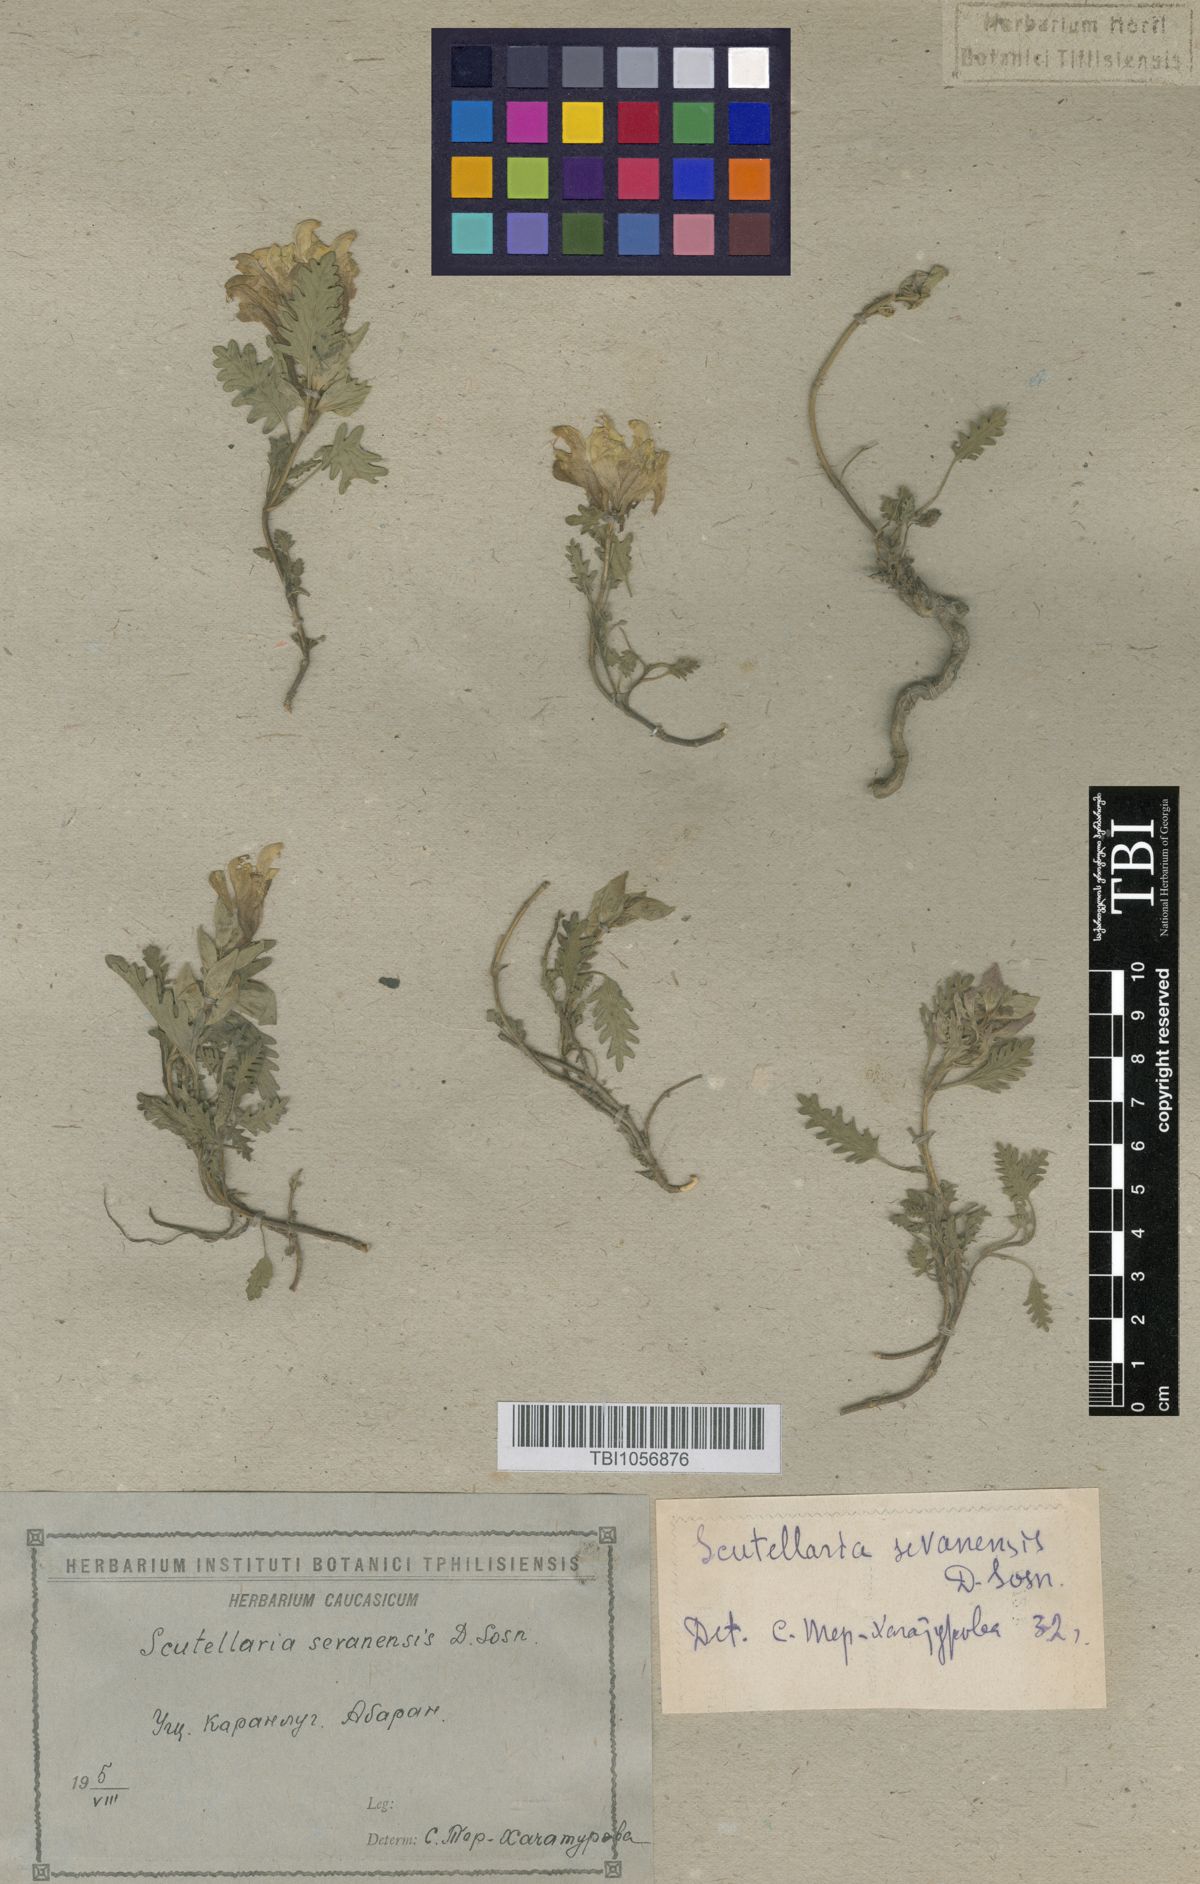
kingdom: Plantae
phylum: Tracheophyta
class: Magnoliopsida
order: Lamiales
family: Lamiaceae
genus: Scutellaria
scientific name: Scutellaria sevanensis
